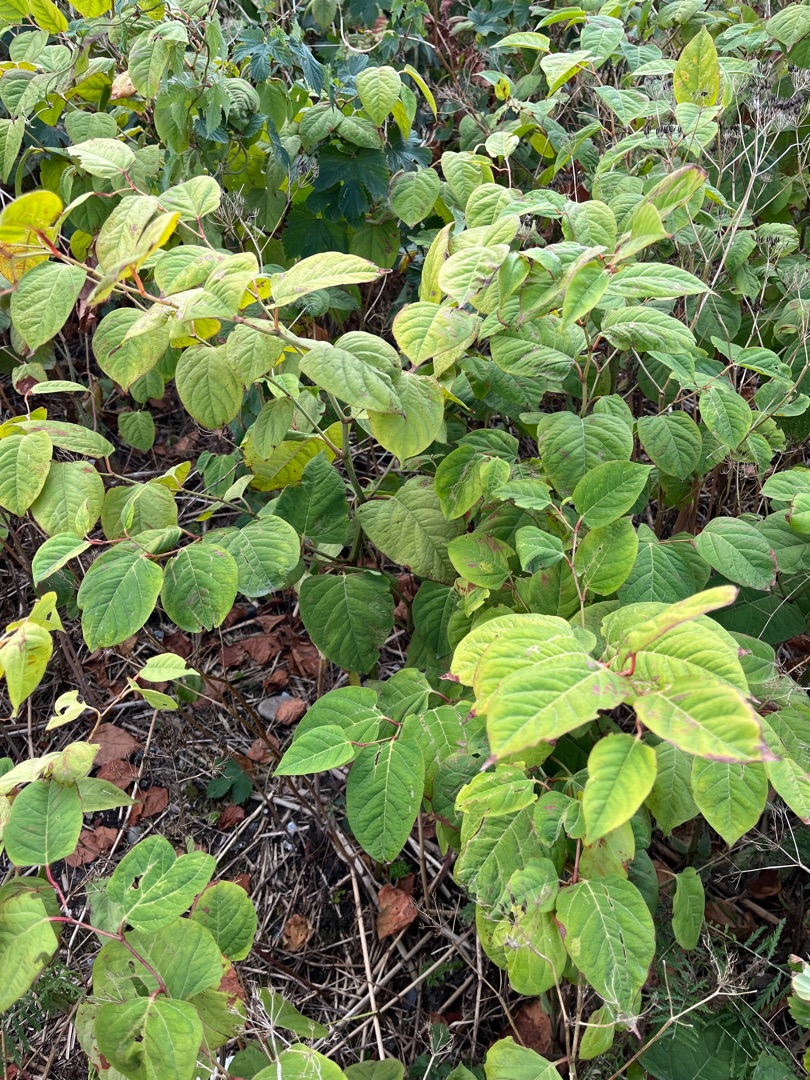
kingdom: Plantae
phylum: Tracheophyta
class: Magnoliopsida
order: Caryophyllales
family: Polygonaceae
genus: Reynoutria
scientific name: Reynoutria japonica
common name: Japan-pileurt
